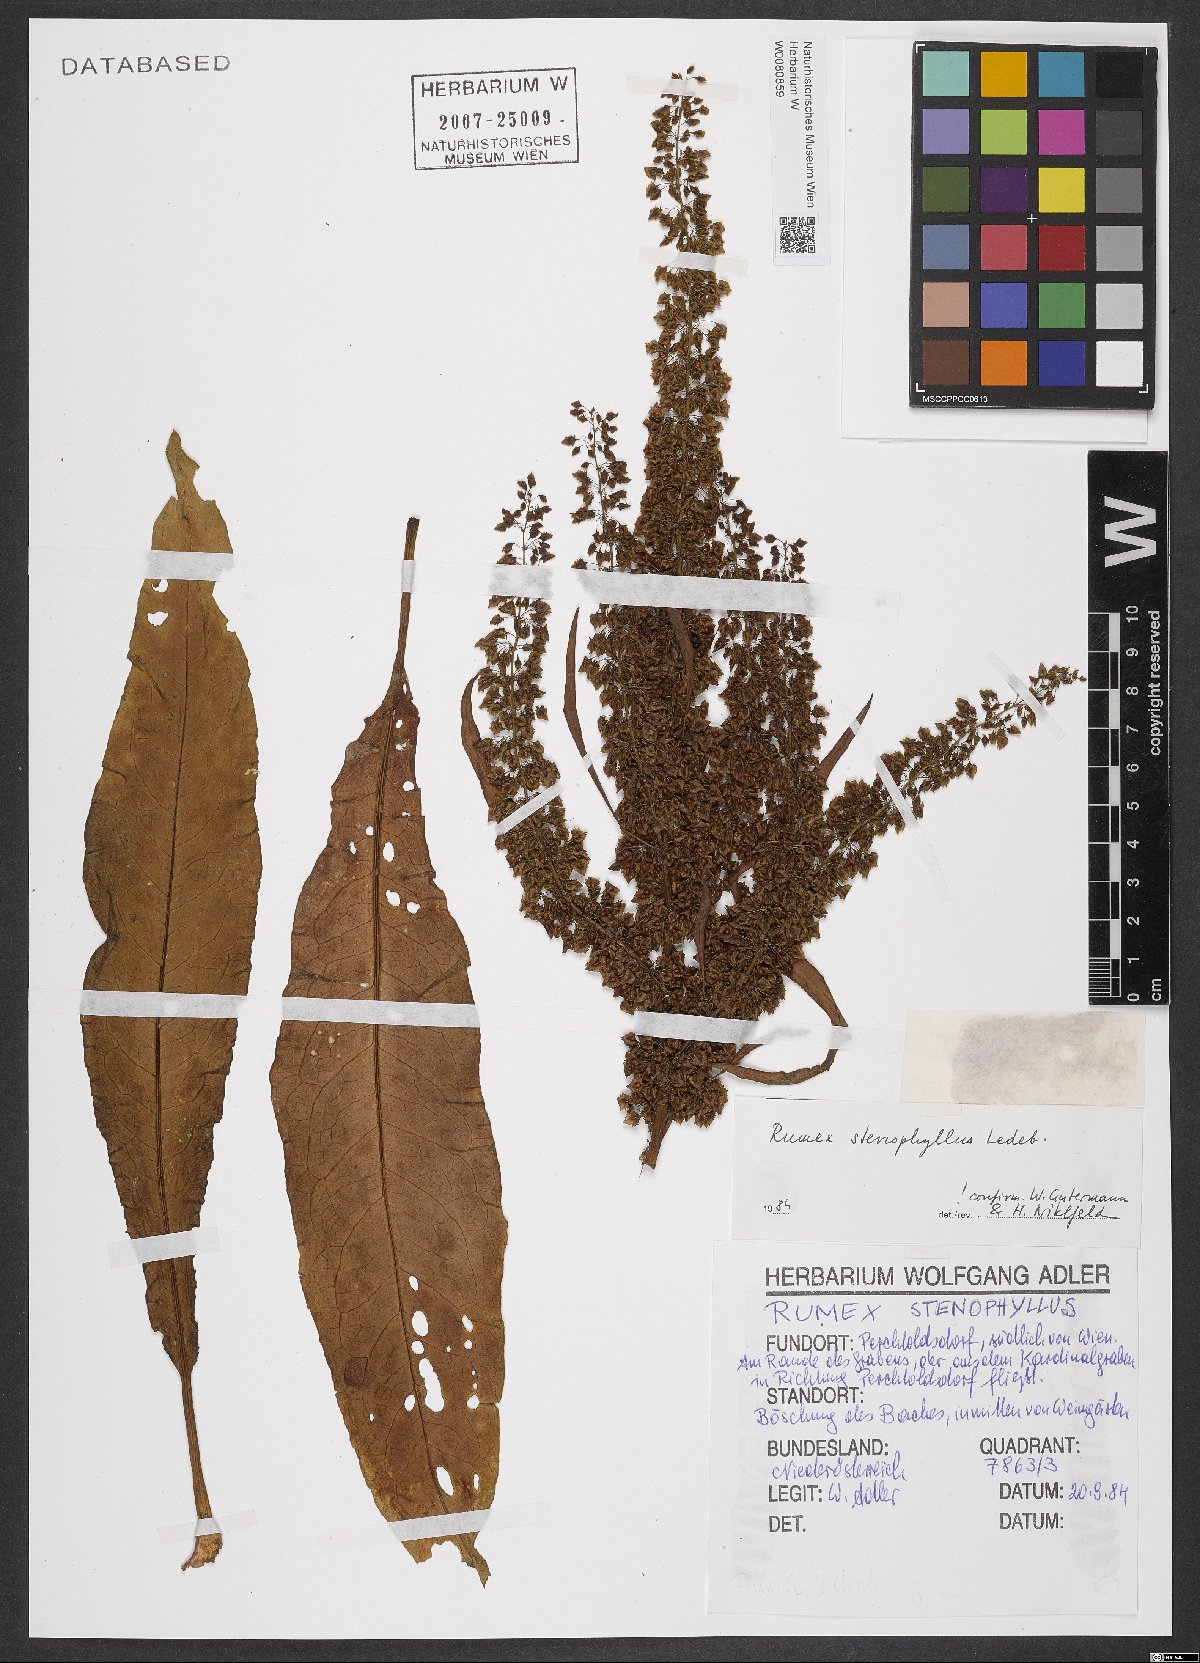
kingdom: Plantae
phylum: Tracheophyta
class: Magnoliopsida
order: Caryophyllales
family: Polygonaceae
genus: Rumex
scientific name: Rumex stenophyllus
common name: Narrowleaf dock
